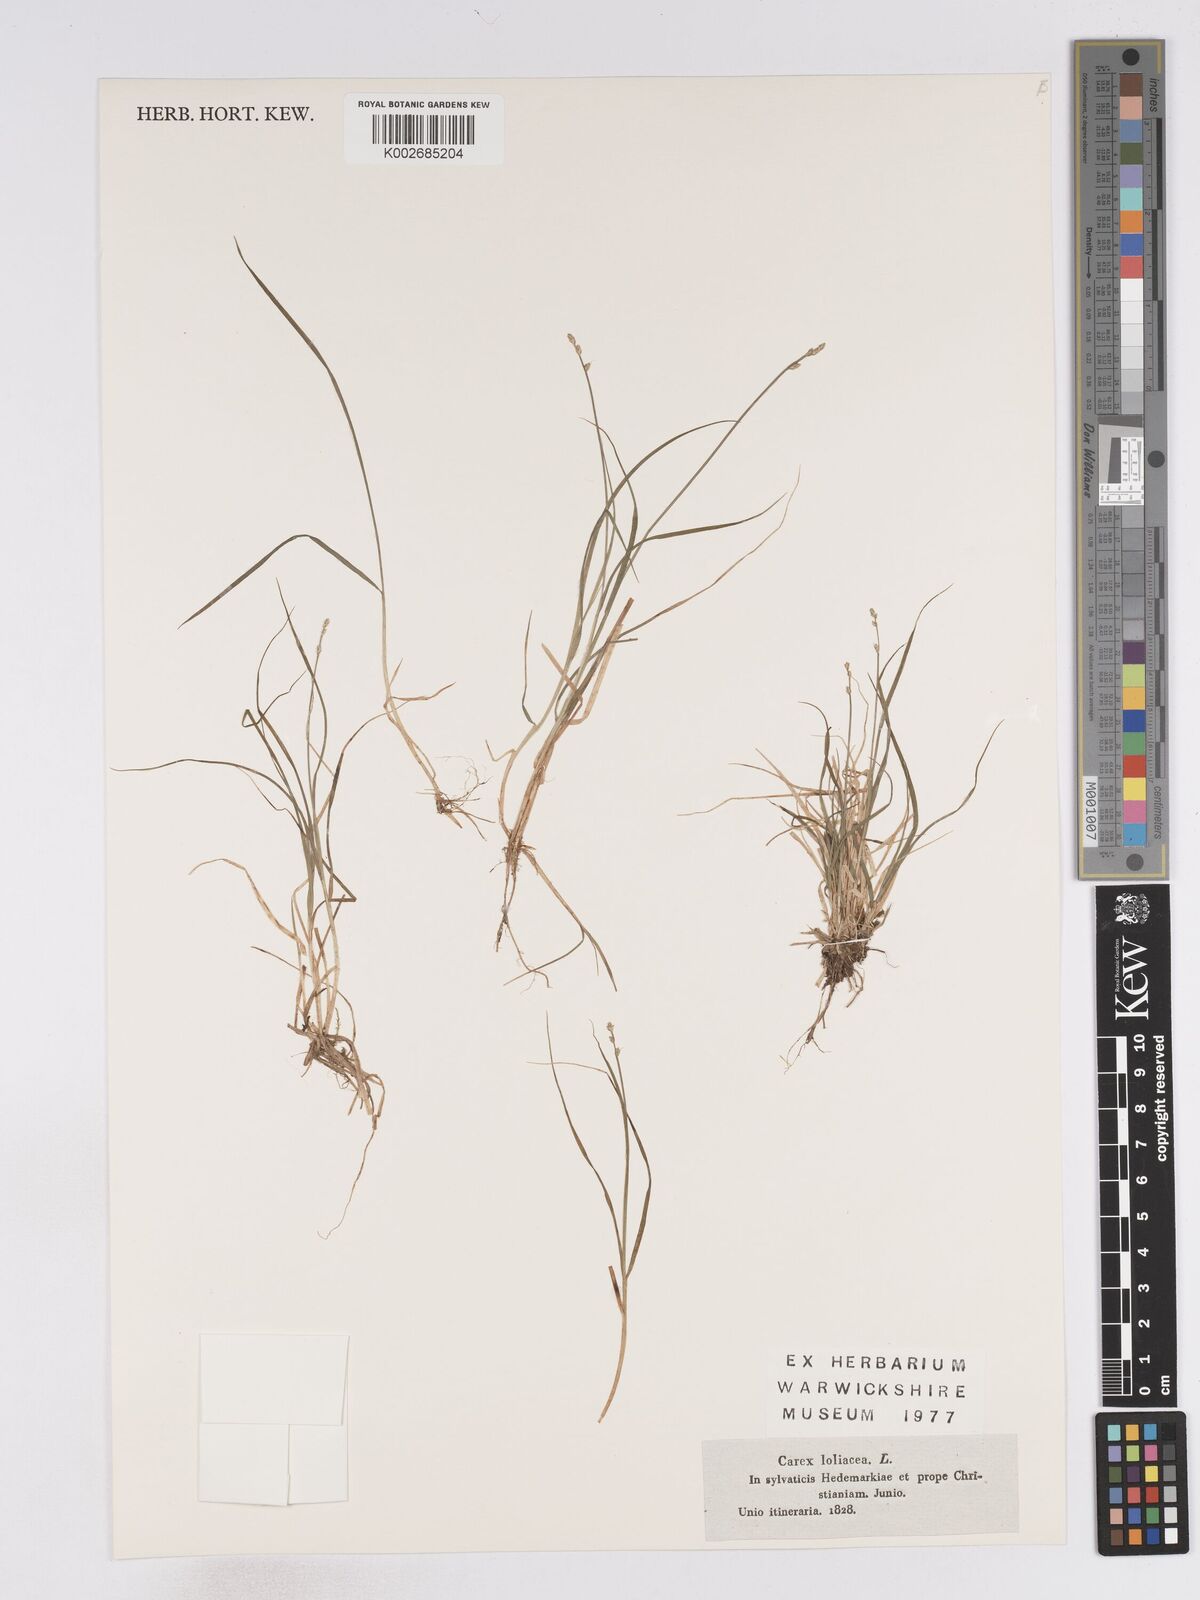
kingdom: Plantae
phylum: Tracheophyta
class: Liliopsida
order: Poales
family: Cyperaceae
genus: Carex
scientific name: Carex loliacea
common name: Ryegrass sedge
